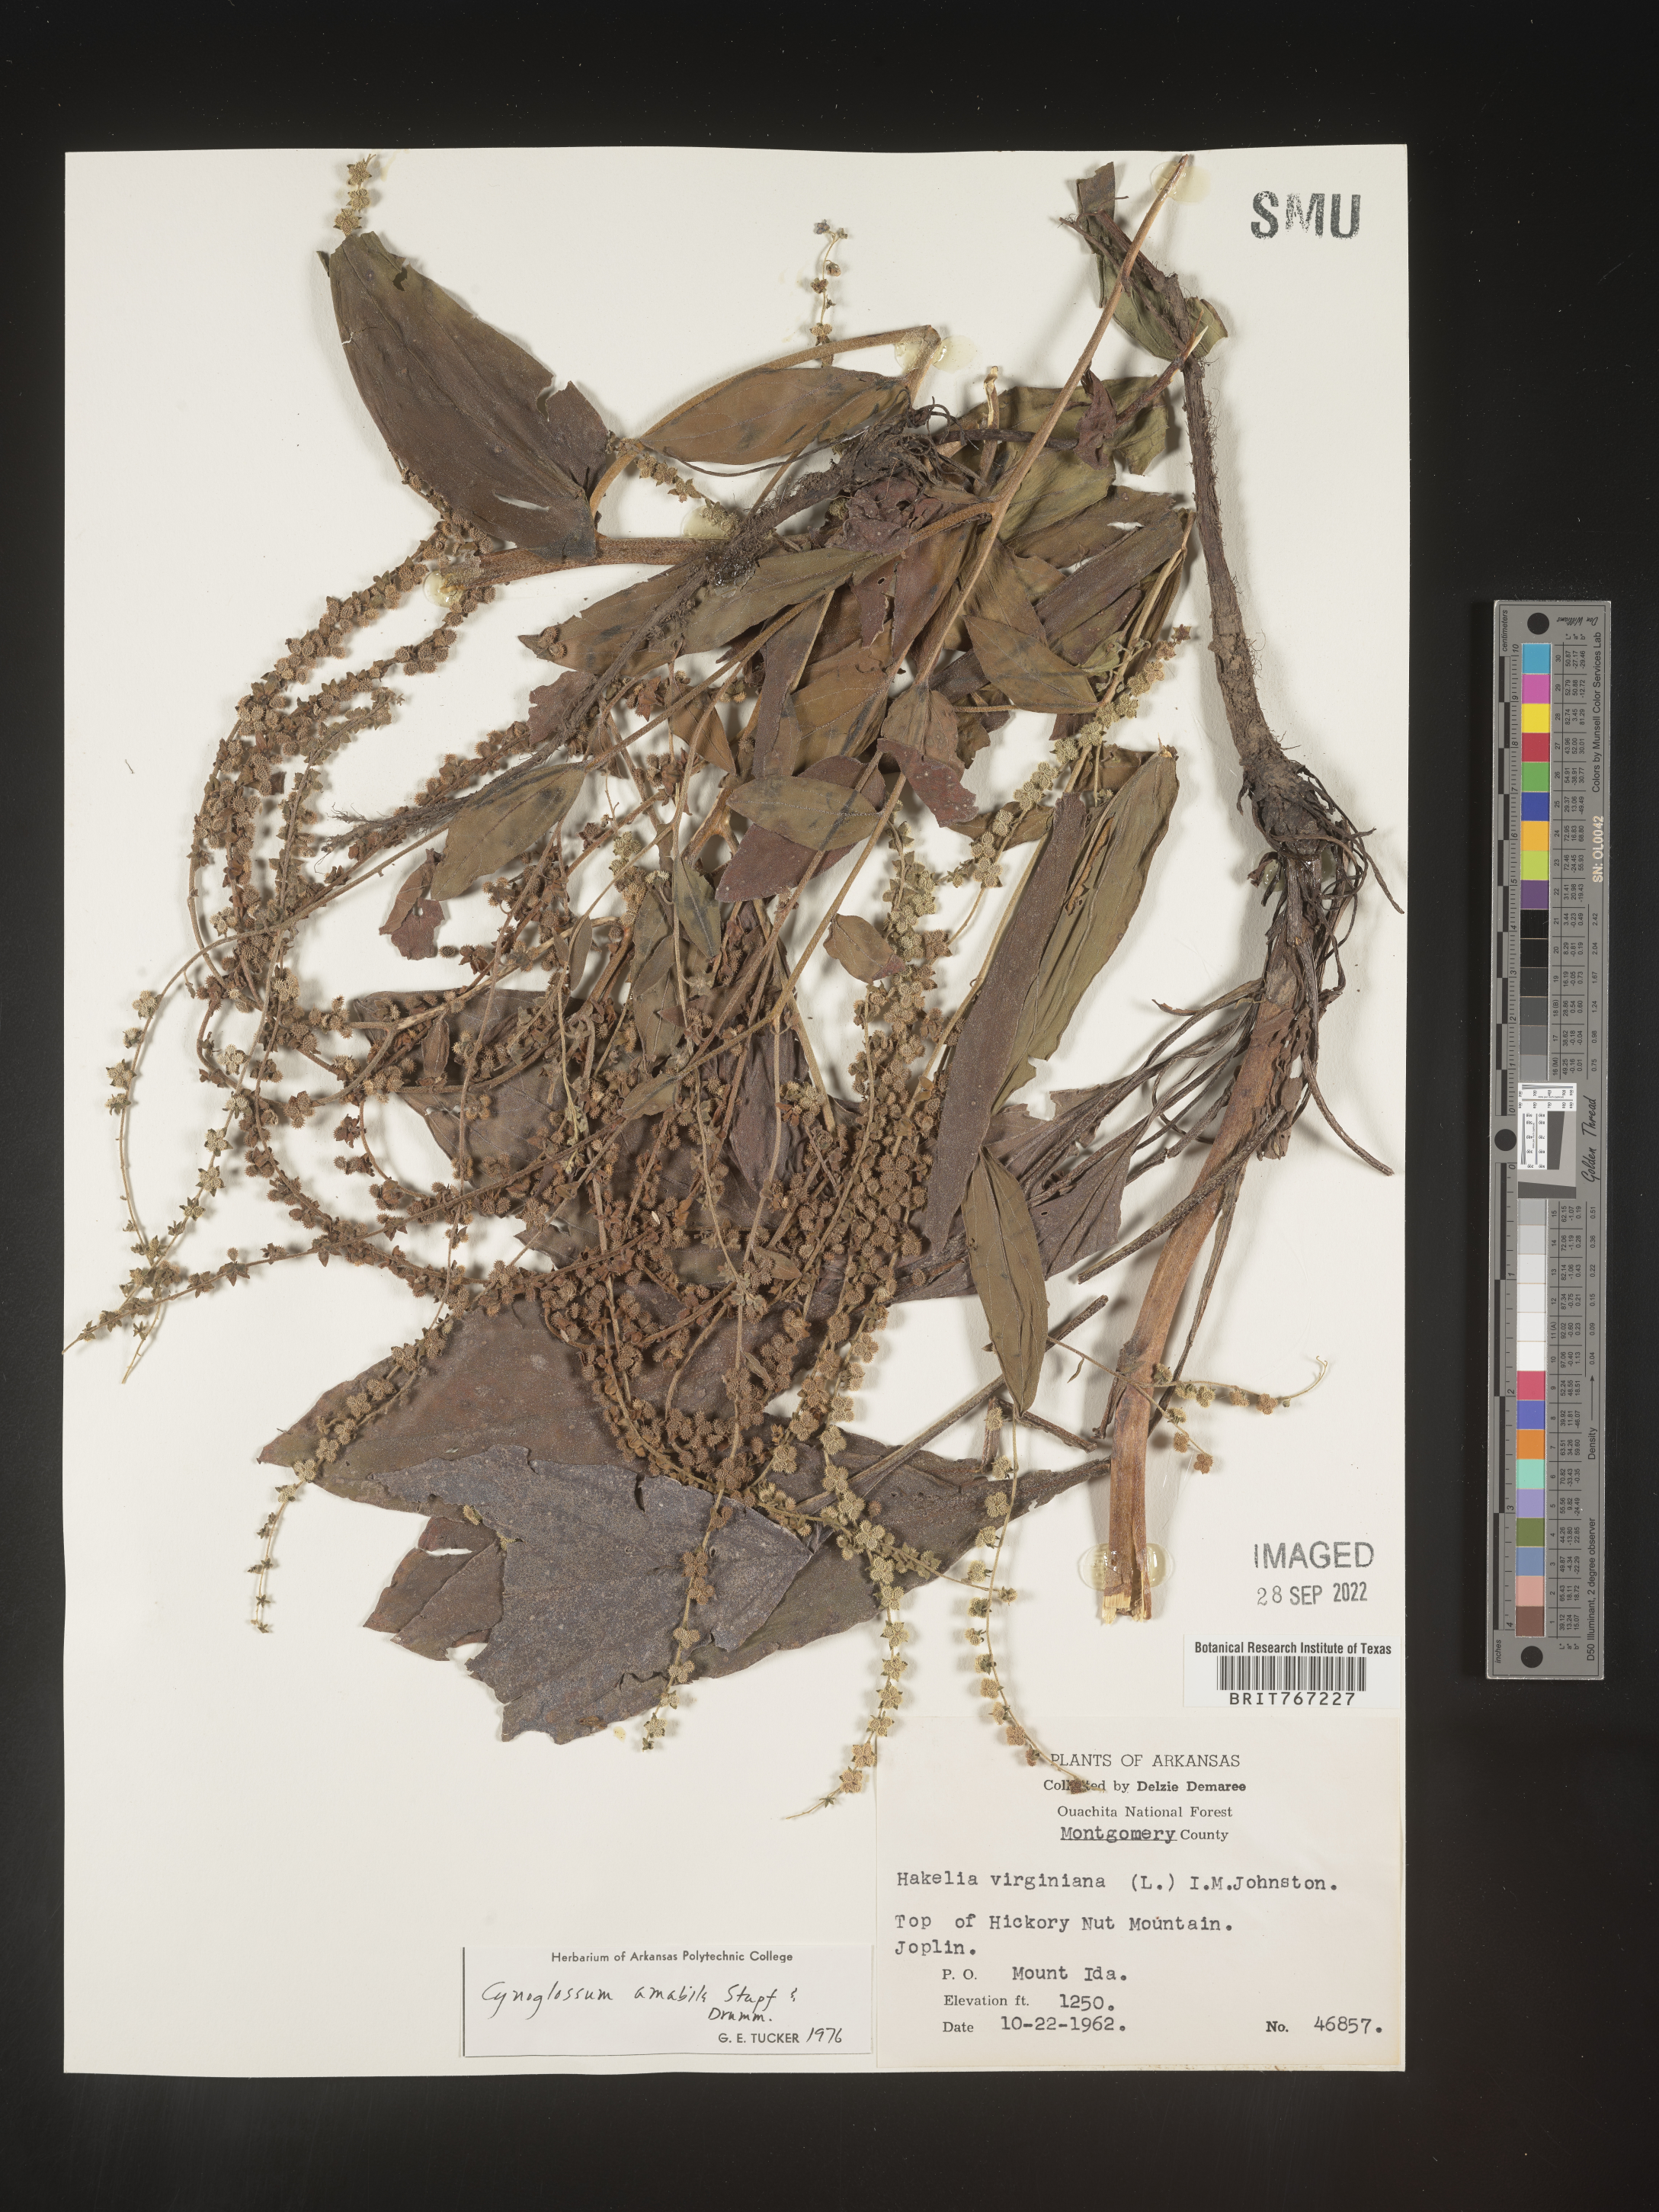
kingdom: Plantae
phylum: Tracheophyta
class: Magnoliopsida
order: Boraginales
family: Boraginaceae
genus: Cynoglossum
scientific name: Cynoglossum
